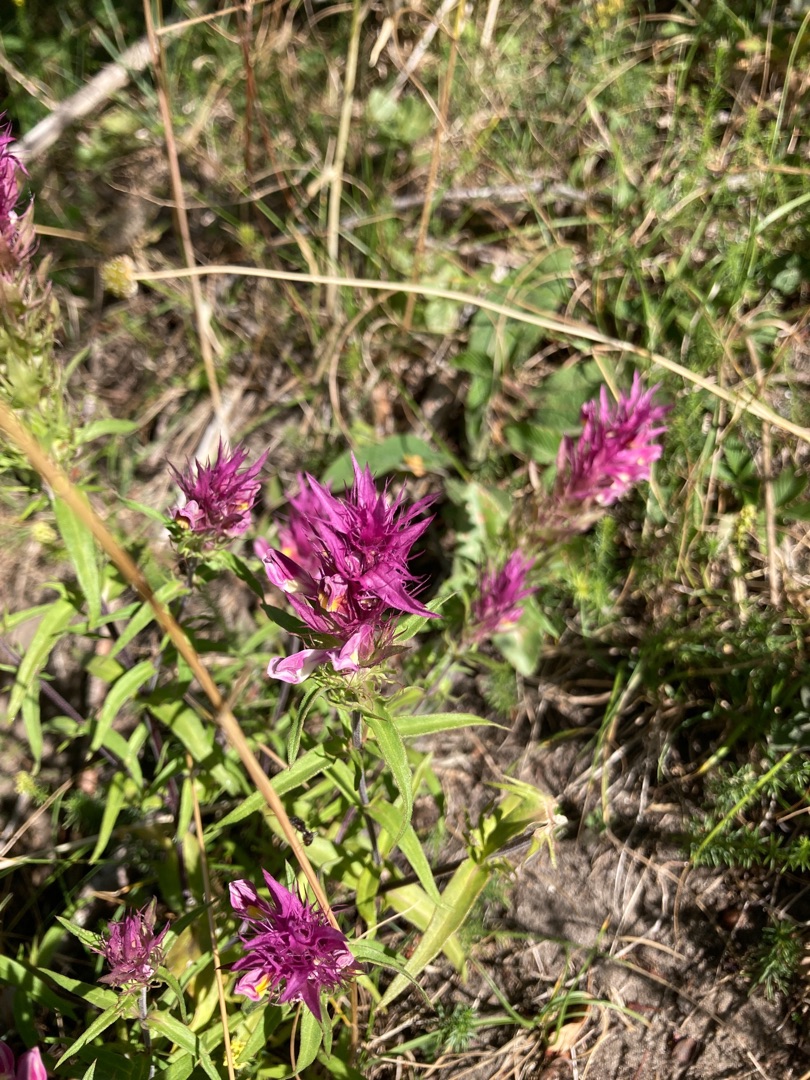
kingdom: Plantae
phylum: Tracheophyta
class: Magnoliopsida
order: Lamiales
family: Orobanchaceae
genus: Melampyrum
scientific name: Melampyrum arvense
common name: Ager-kohvede
